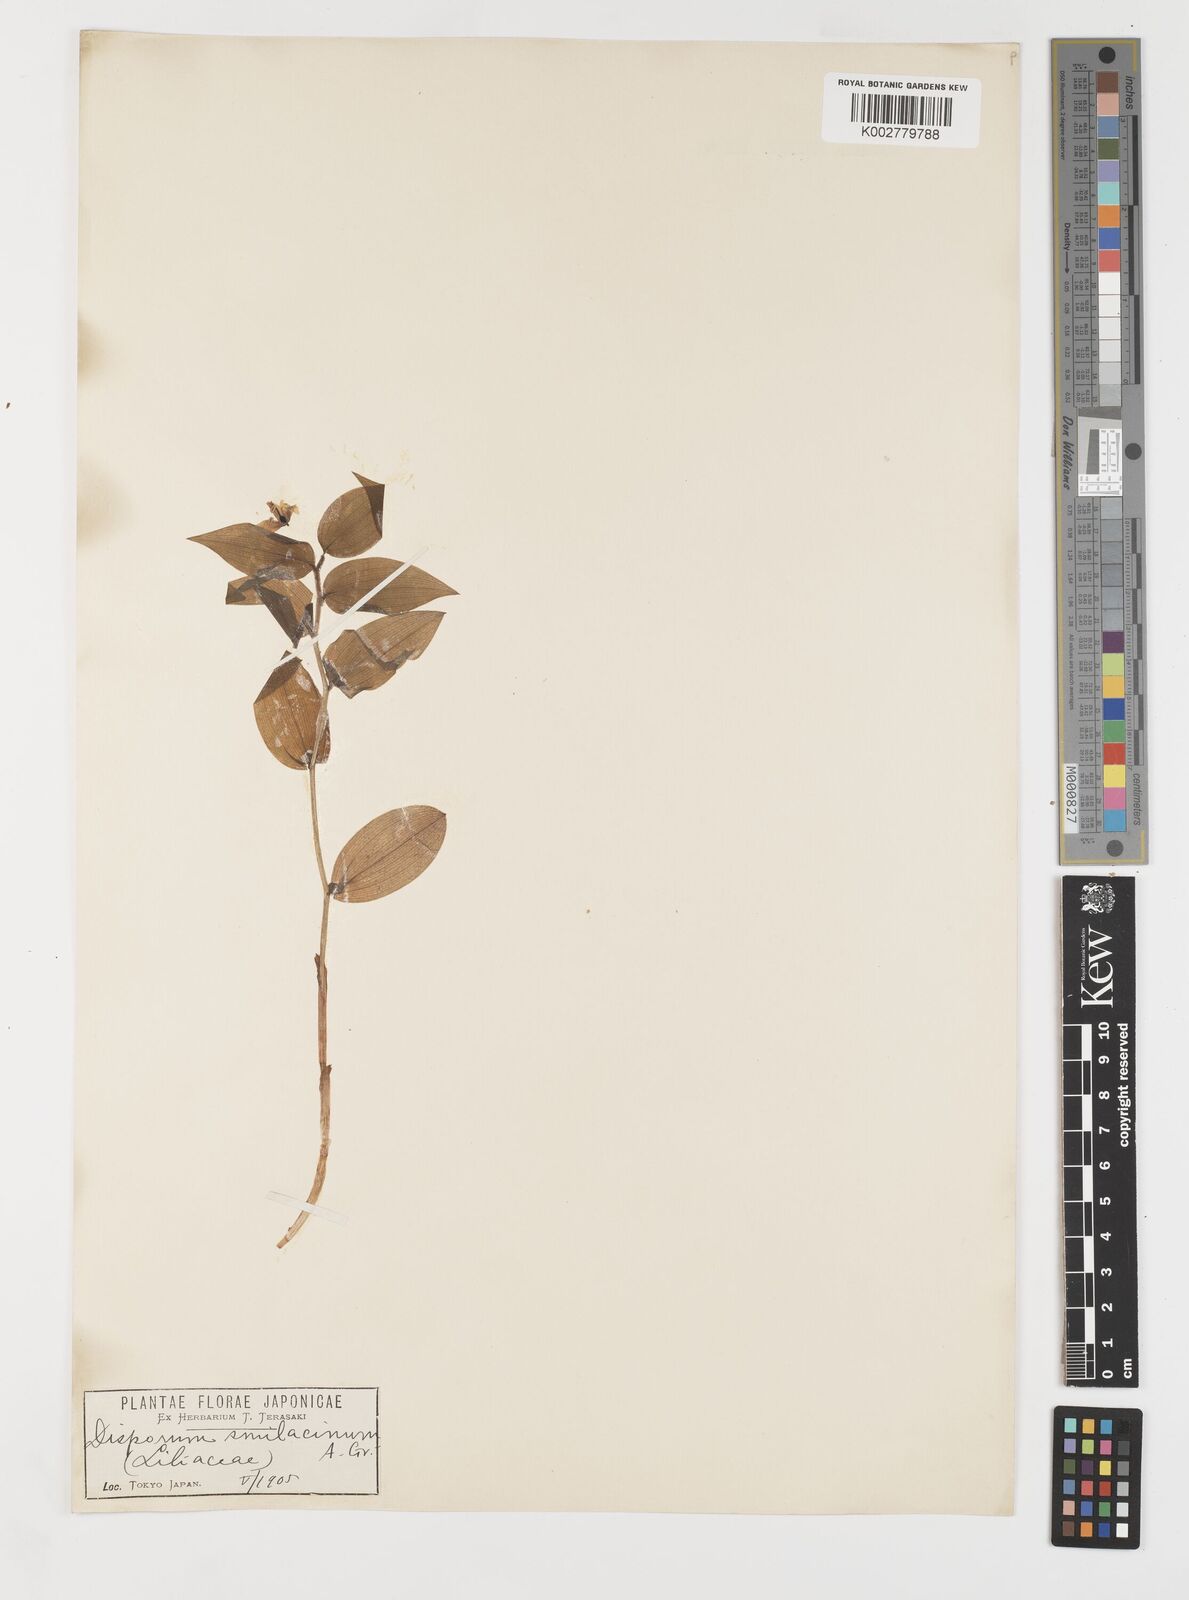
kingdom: Plantae
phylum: Tracheophyta
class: Liliopsida
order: Liliales
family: Colchicaceae
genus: Disporum
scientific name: Disporum smilacinum
